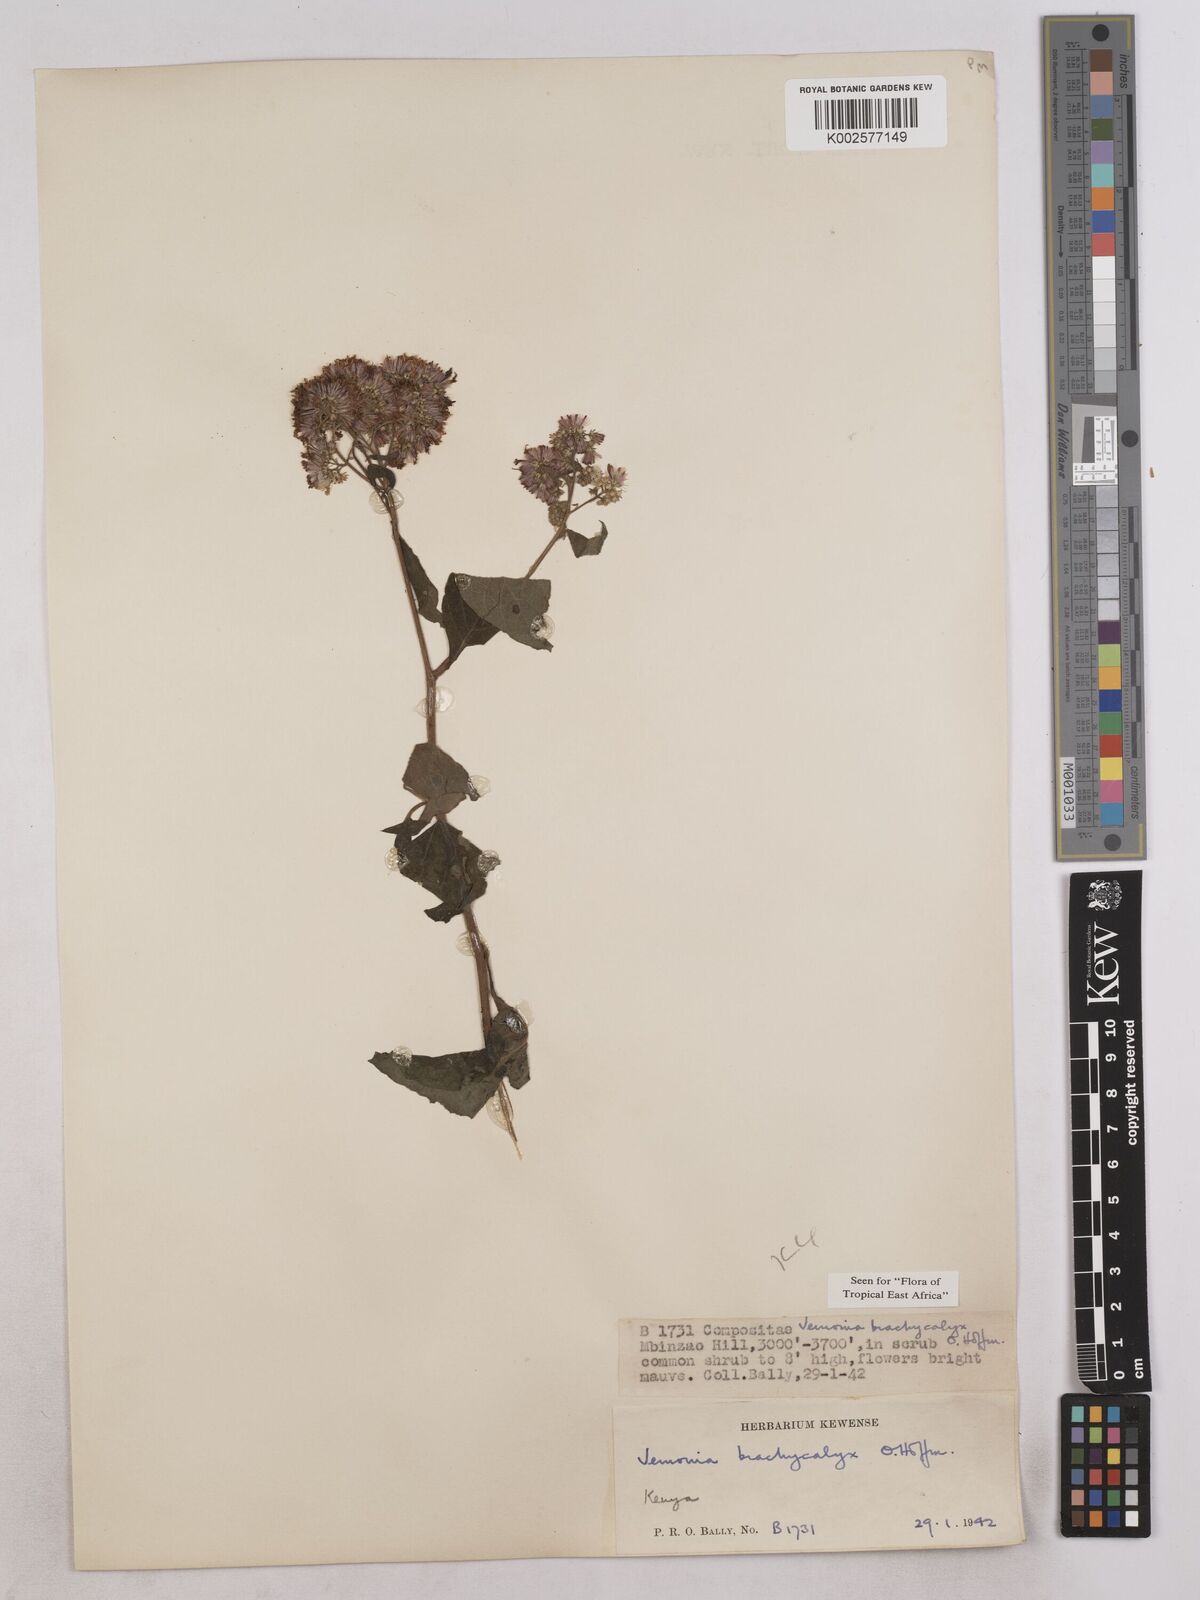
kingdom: Plantae
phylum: Tracheophyta
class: Magnoliopsida
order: Asterales
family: Asteraceae
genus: Hoffmannanthus
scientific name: Hoffmannanthus abbotianus
